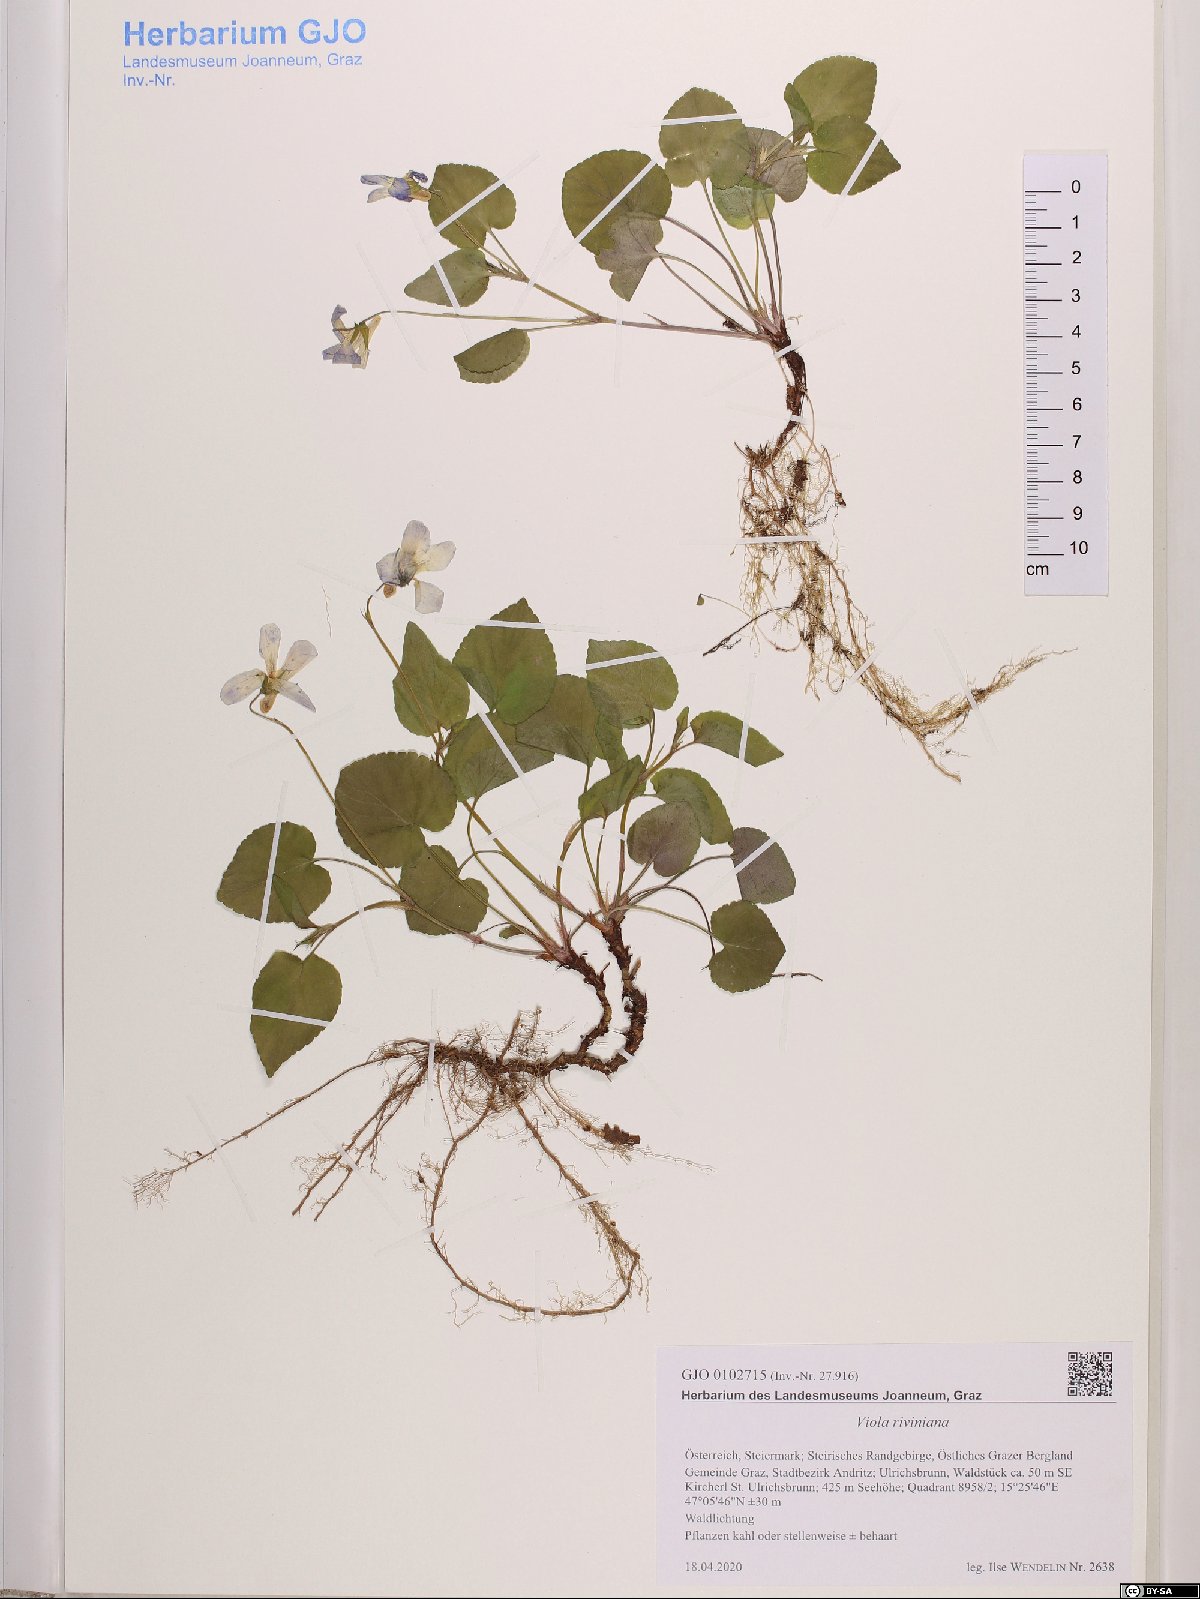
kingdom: Plantae
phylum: Tracheophyta
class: Magnoliopsida
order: Malpighiales
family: Violaceae
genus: Viola
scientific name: Viola riviniana
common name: Common dog-violet
